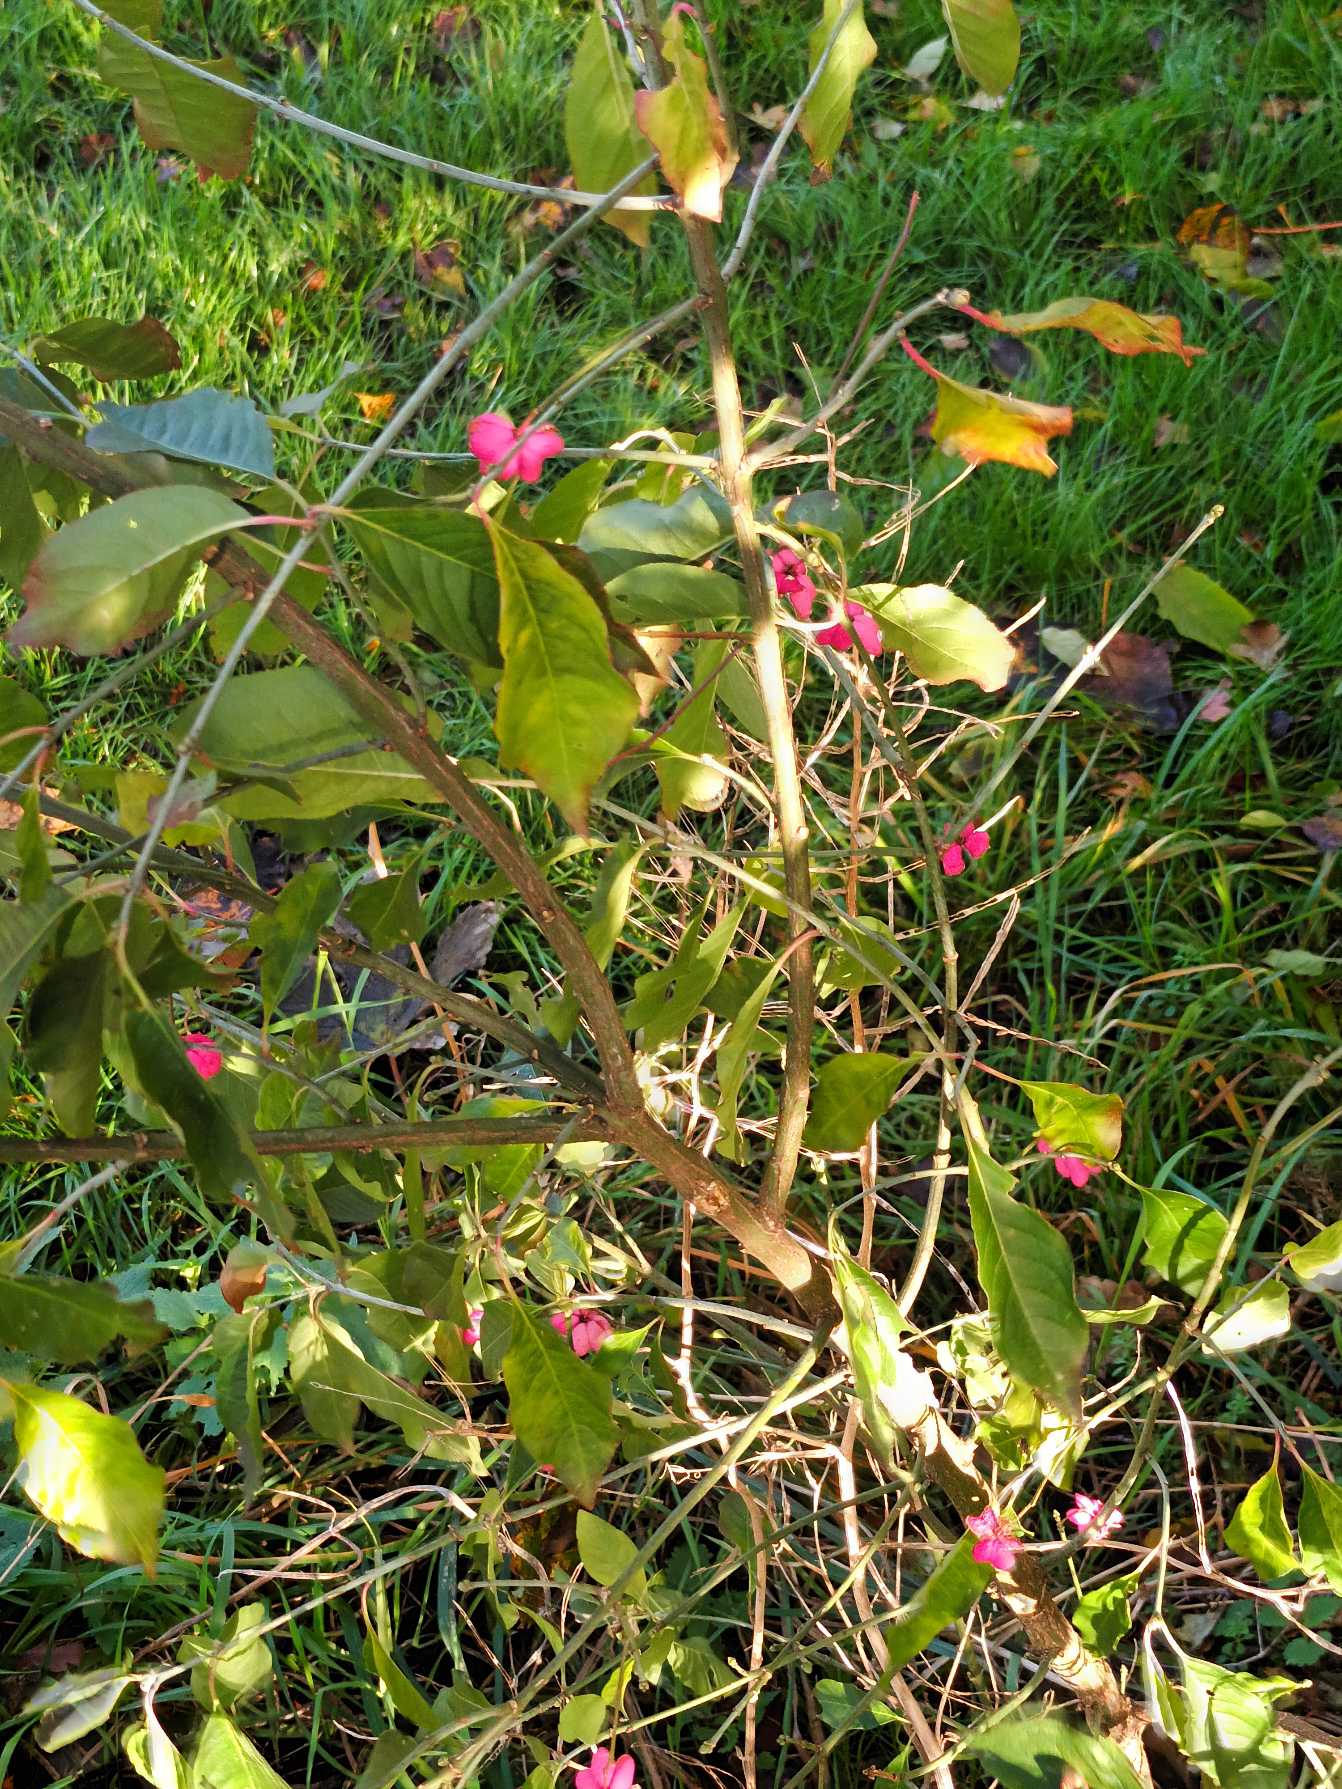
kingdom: Plantae
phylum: Tracheophyta
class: Magnoliopsida
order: Celastrales
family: Celastraceae
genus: Euonymus
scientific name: Euonymus europaeus
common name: Benved
